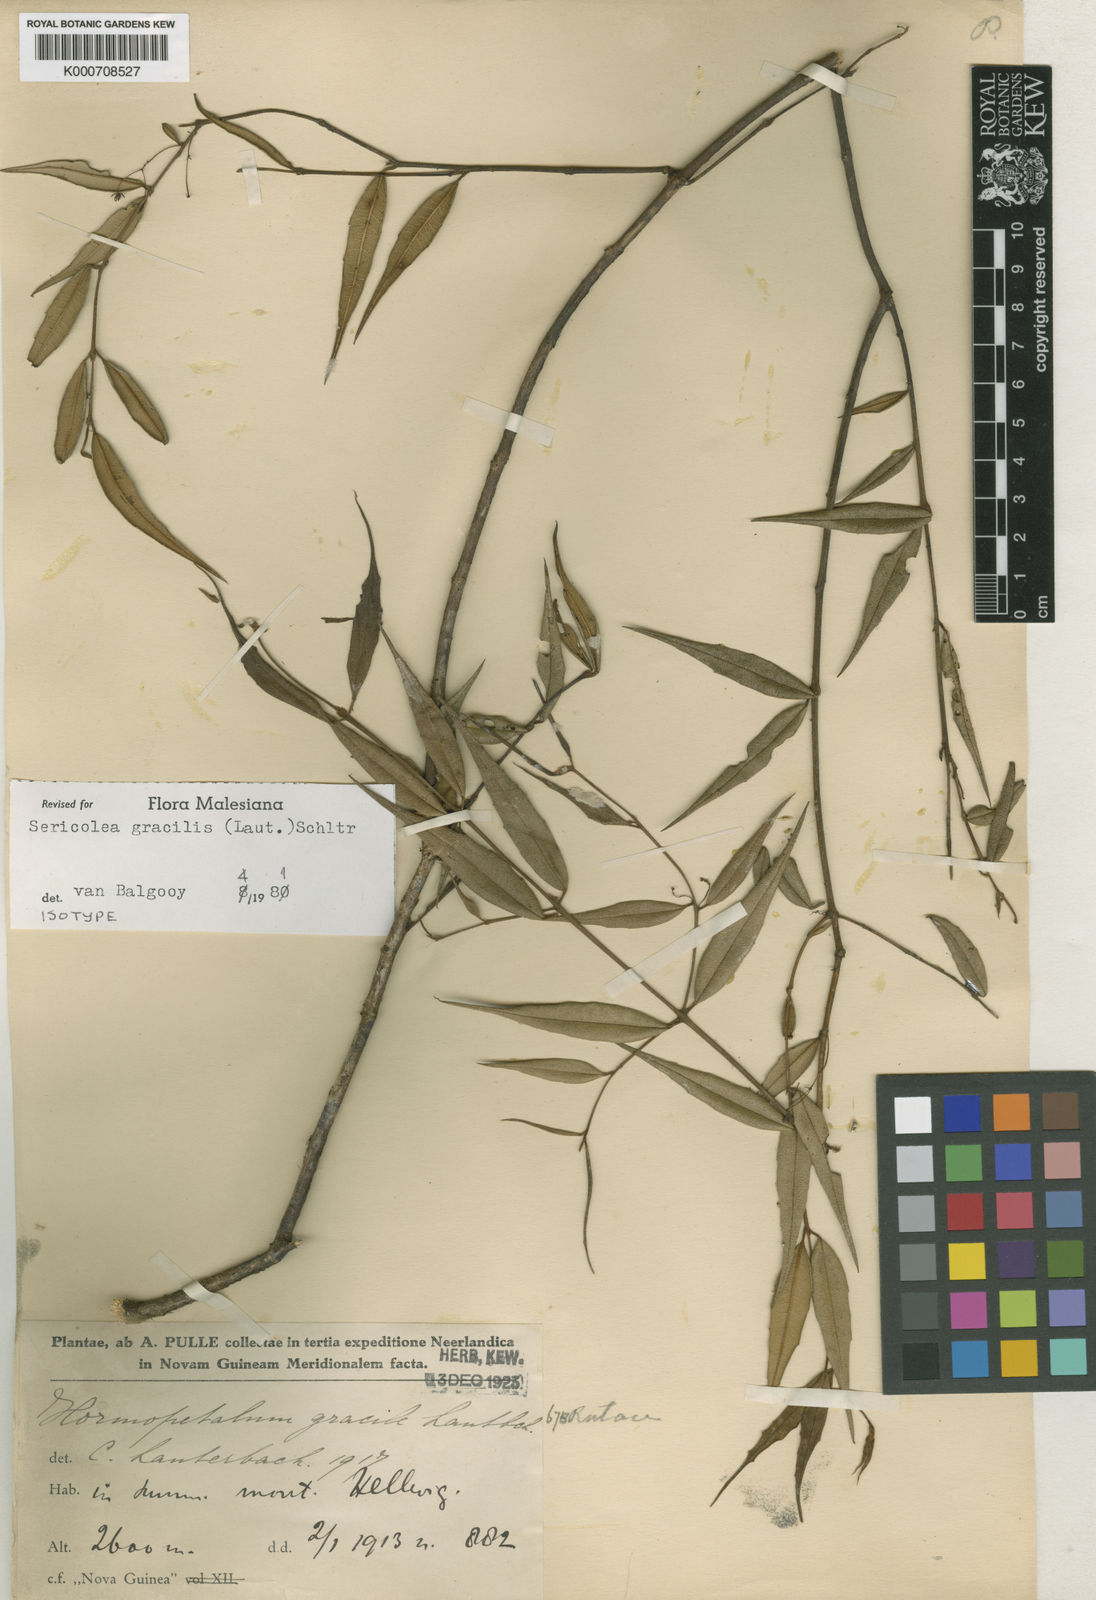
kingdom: Plantae
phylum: Tracheophyta
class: Magnoliopsida
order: Oxalidales
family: Elaeocarpaceae
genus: Sericolea
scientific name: Sericolea gracilis
